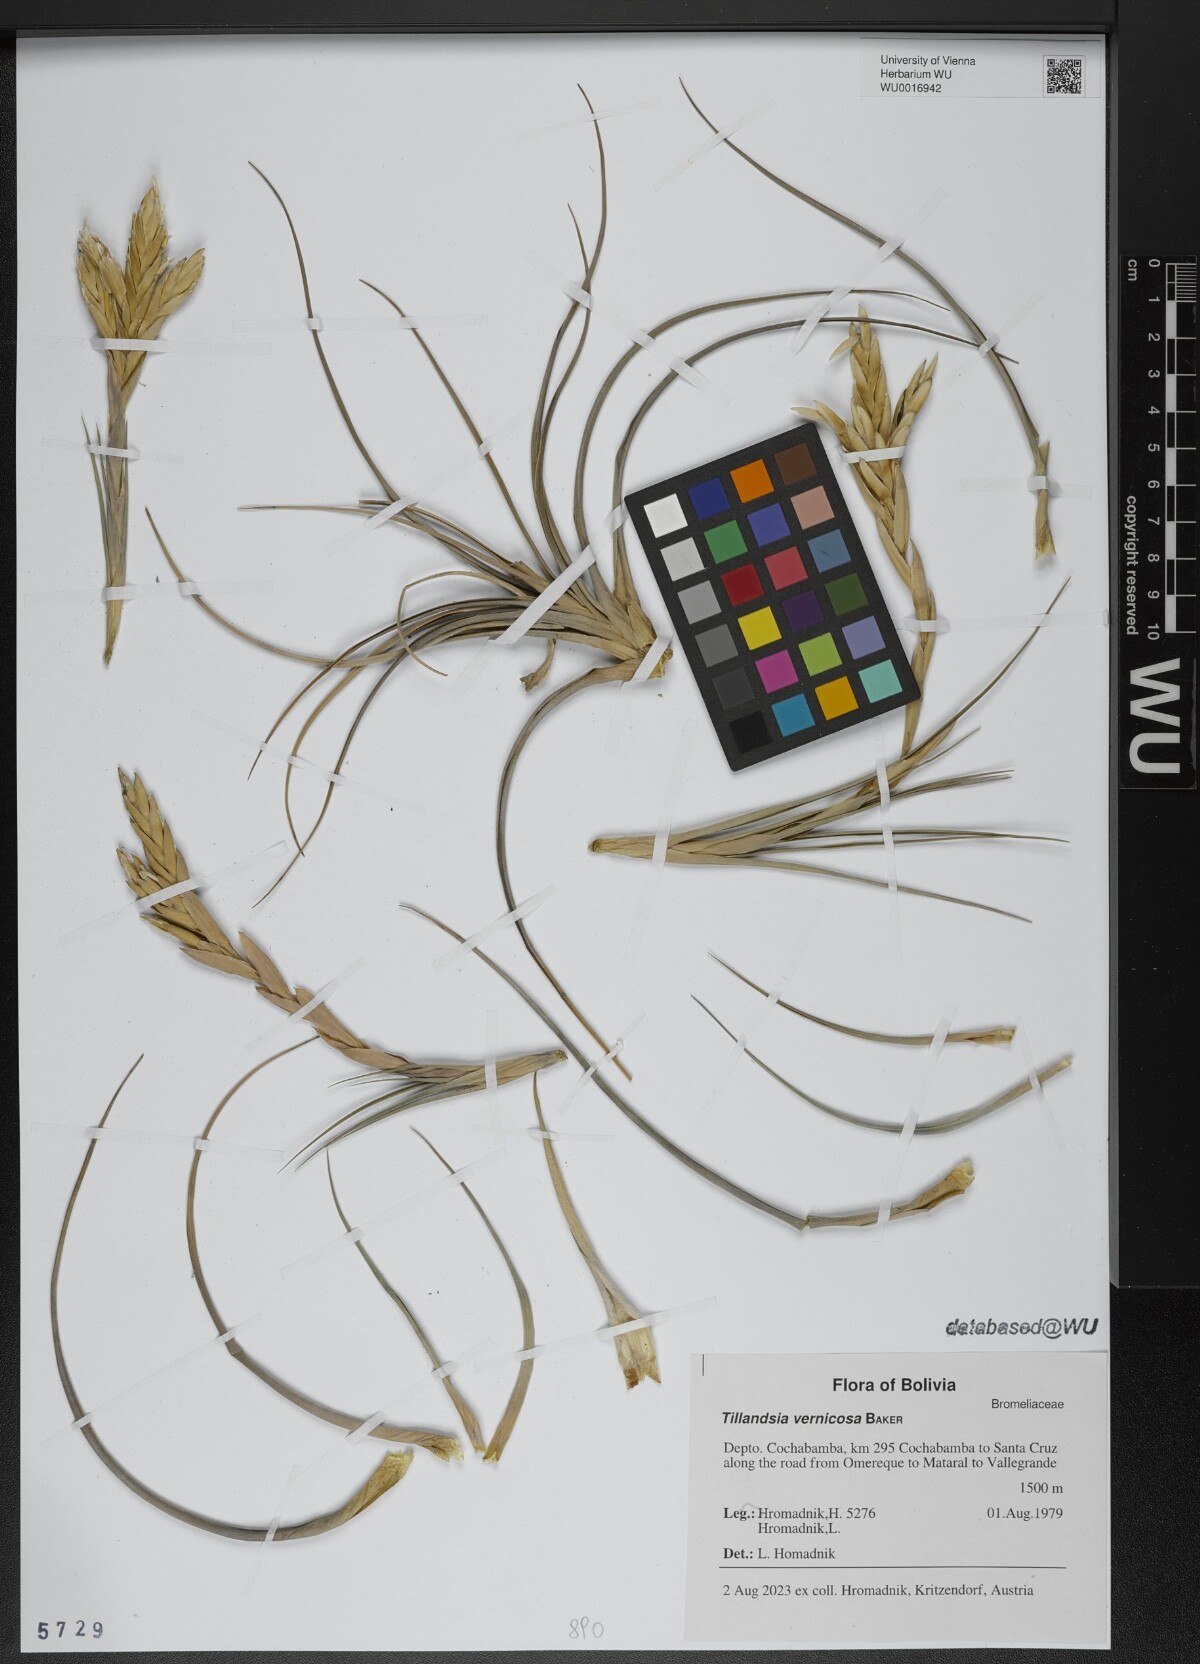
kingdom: Plantae
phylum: Tracheophyta
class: Liliopsida
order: Poales
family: Bromeliaceae
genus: Tillandsia
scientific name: Tillandsia vernicosa
